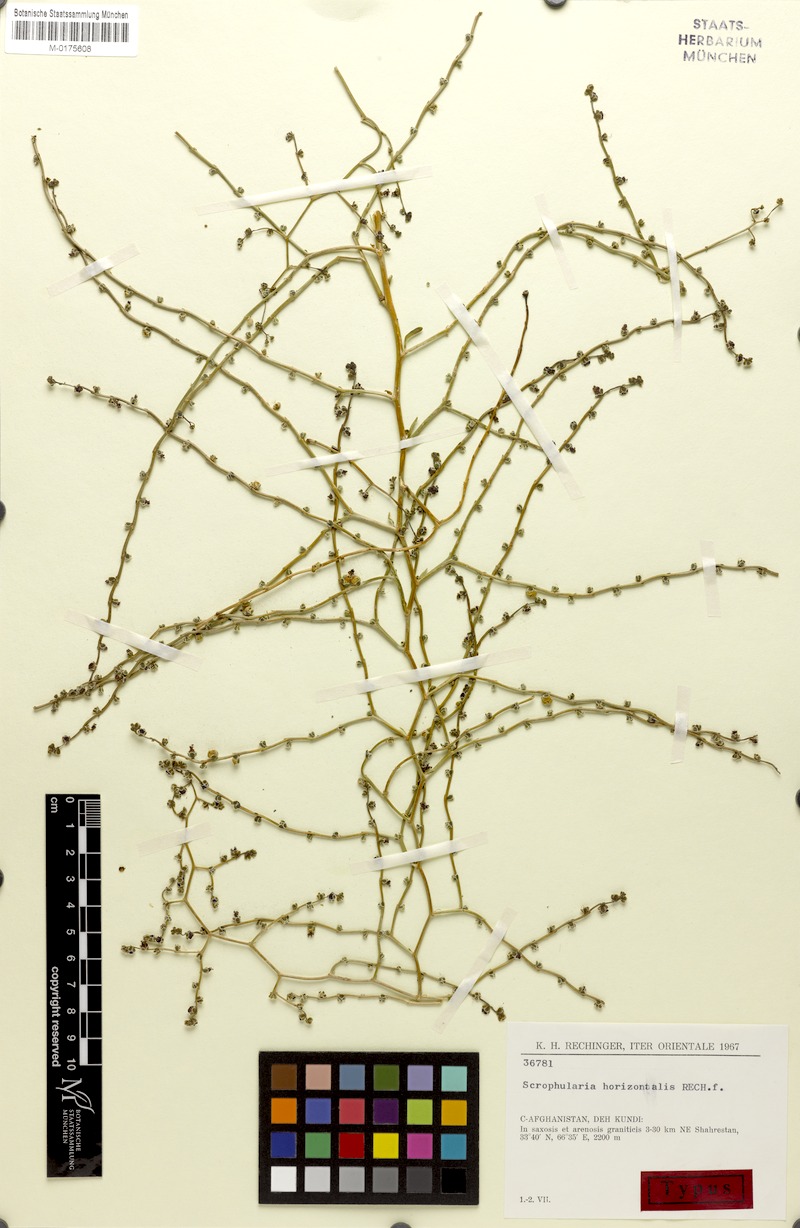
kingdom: Plantae
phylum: Tracheophyta
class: Magnoliopsida
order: Lamiales
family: Scrophulariaceae
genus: Scrophularia
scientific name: Scrophularia horizontalis
